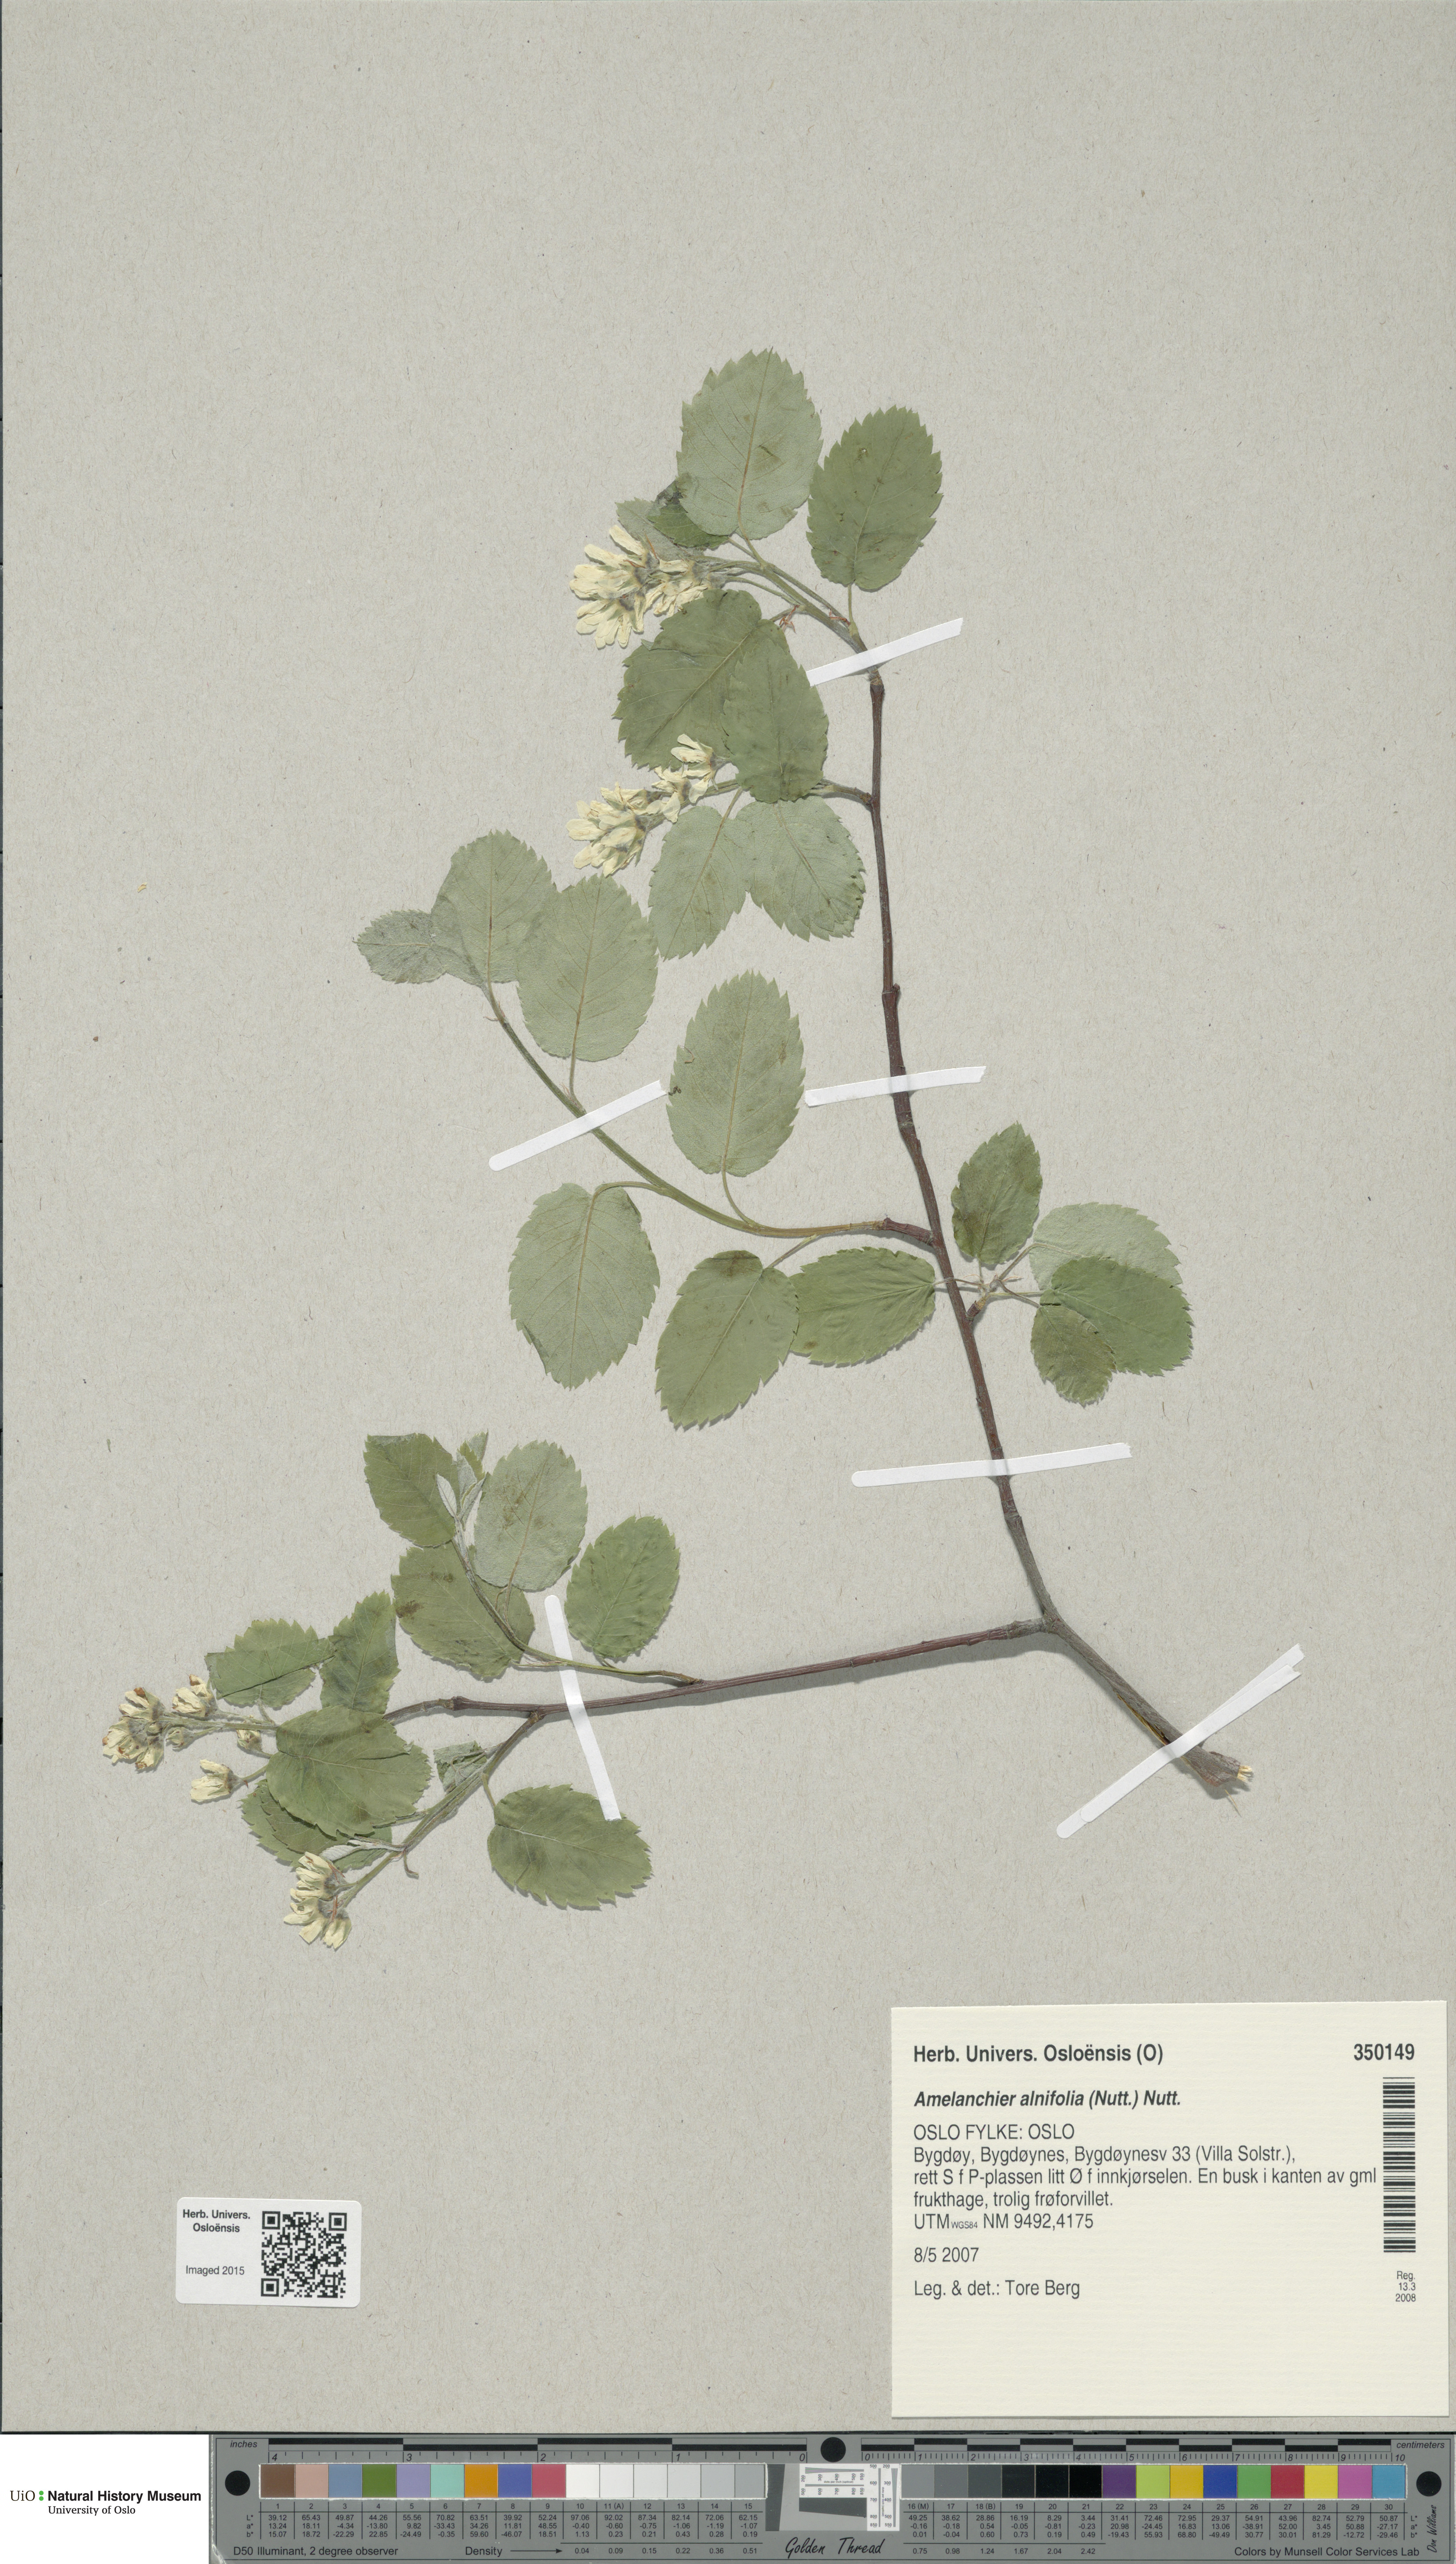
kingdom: Plantae
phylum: Tracheophyta
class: Magnoliopsida
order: Rosales
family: Rosaceae
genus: Amelanchier
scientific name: Amelanchier alnifolia
